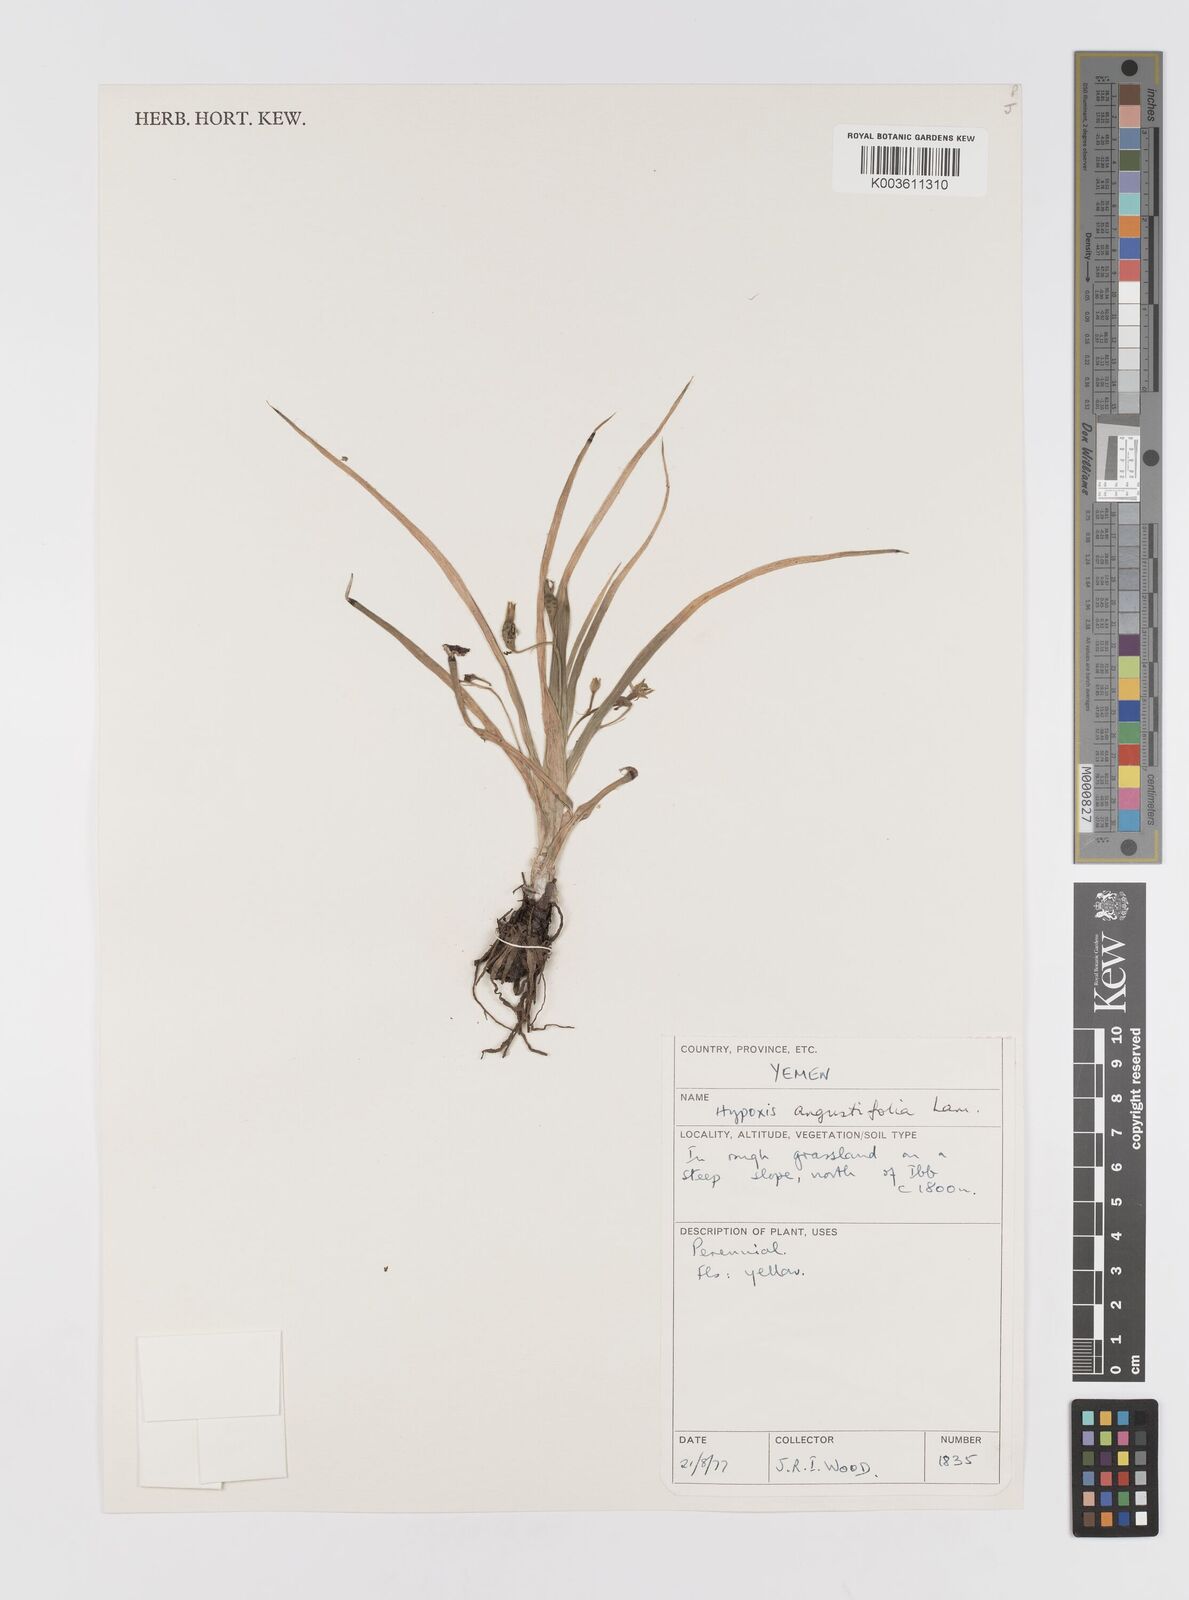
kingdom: Plantae
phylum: Tracheophyta
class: Liliopsida
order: Asparagales
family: Hypoxidaceae
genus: Hypoxis
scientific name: Hypoxis angustifolia
